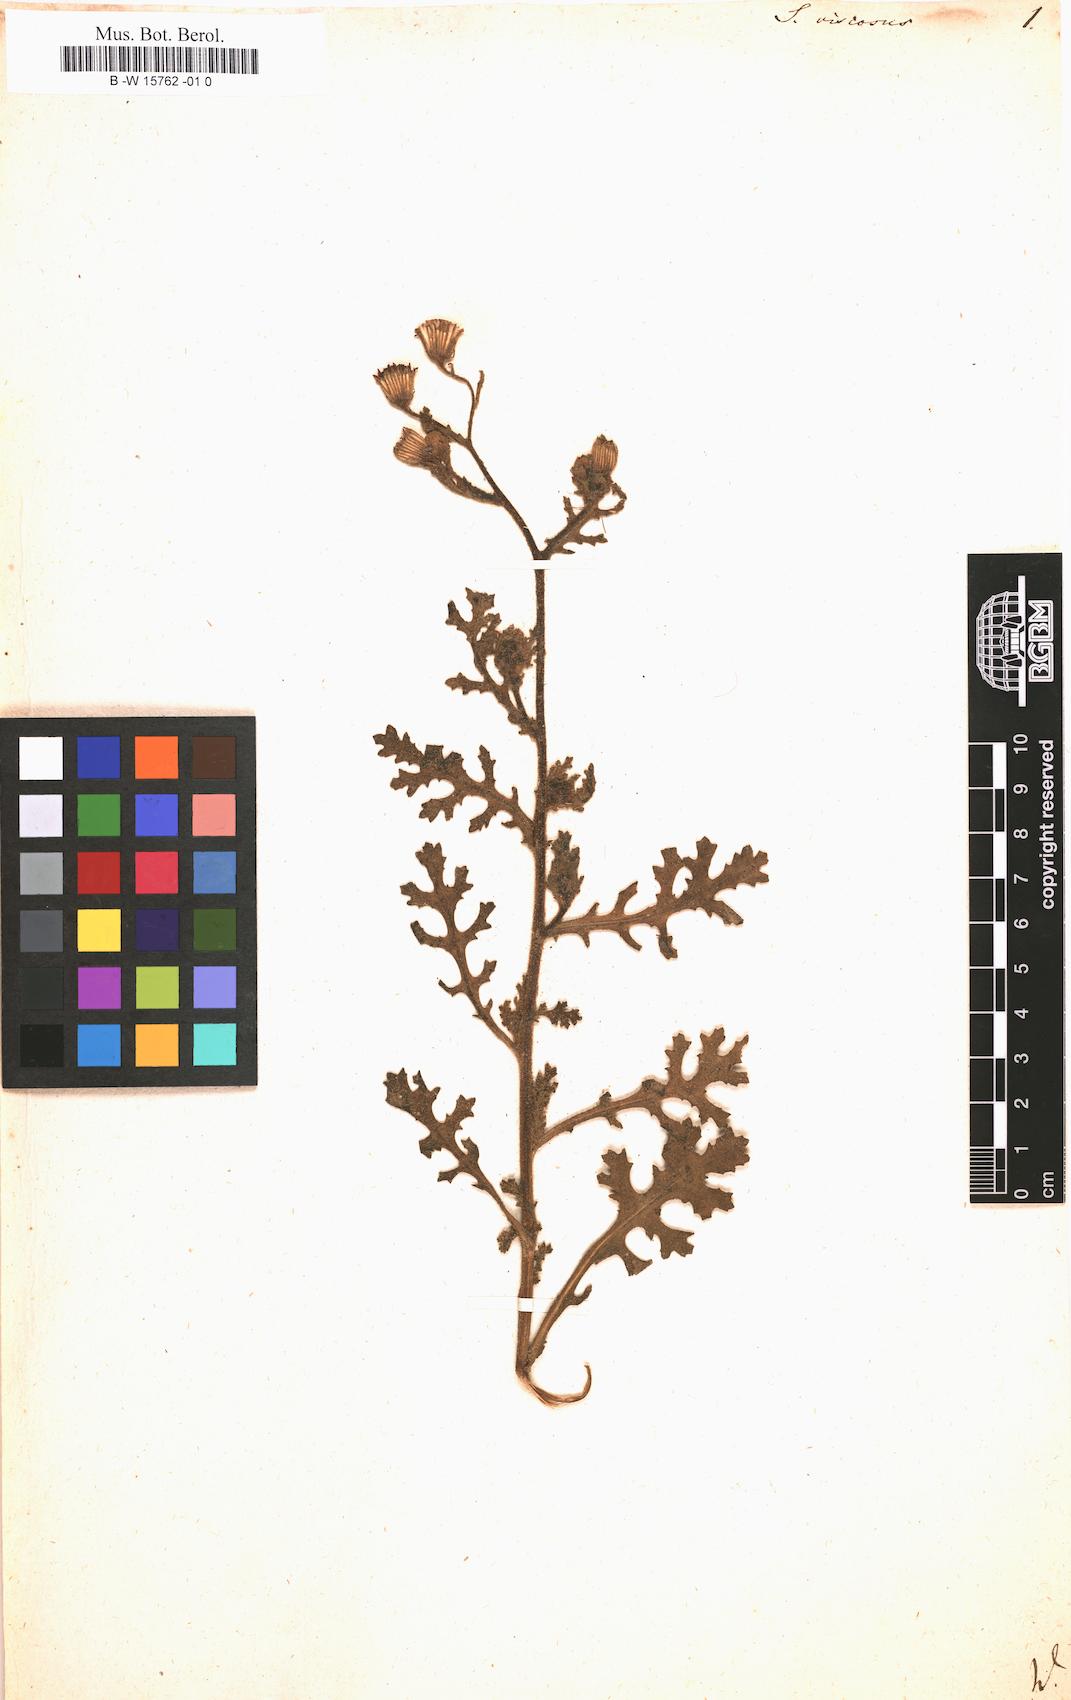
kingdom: Plantae
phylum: Tracheophyta
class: Magnoliopsida
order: Asterales
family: Asteraceae
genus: Senecio
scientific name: Senecio viscosus
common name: Sticky groundsel
